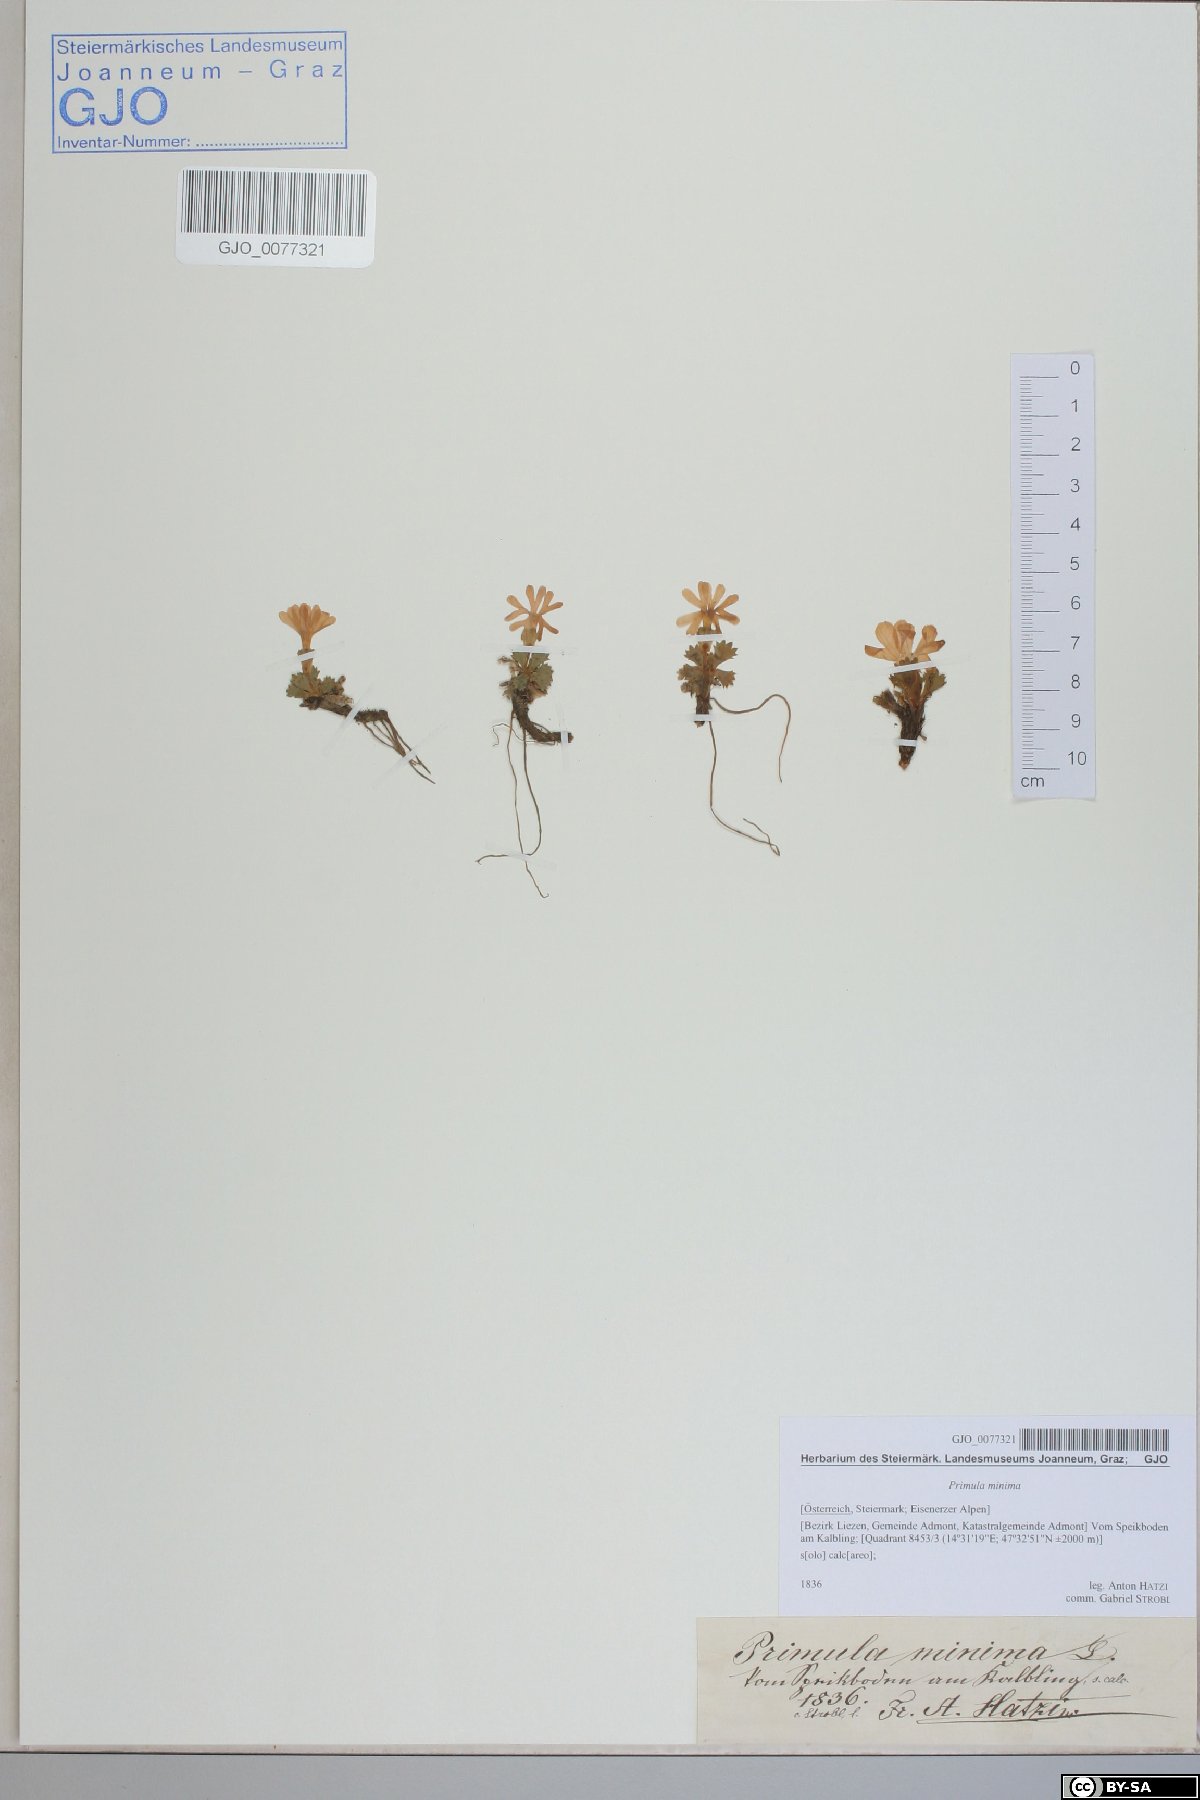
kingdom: Plantae
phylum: Tracheophyta
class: Magnoliopsida
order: Ericales
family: Primulaceae
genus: Primula
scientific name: Primula minima
